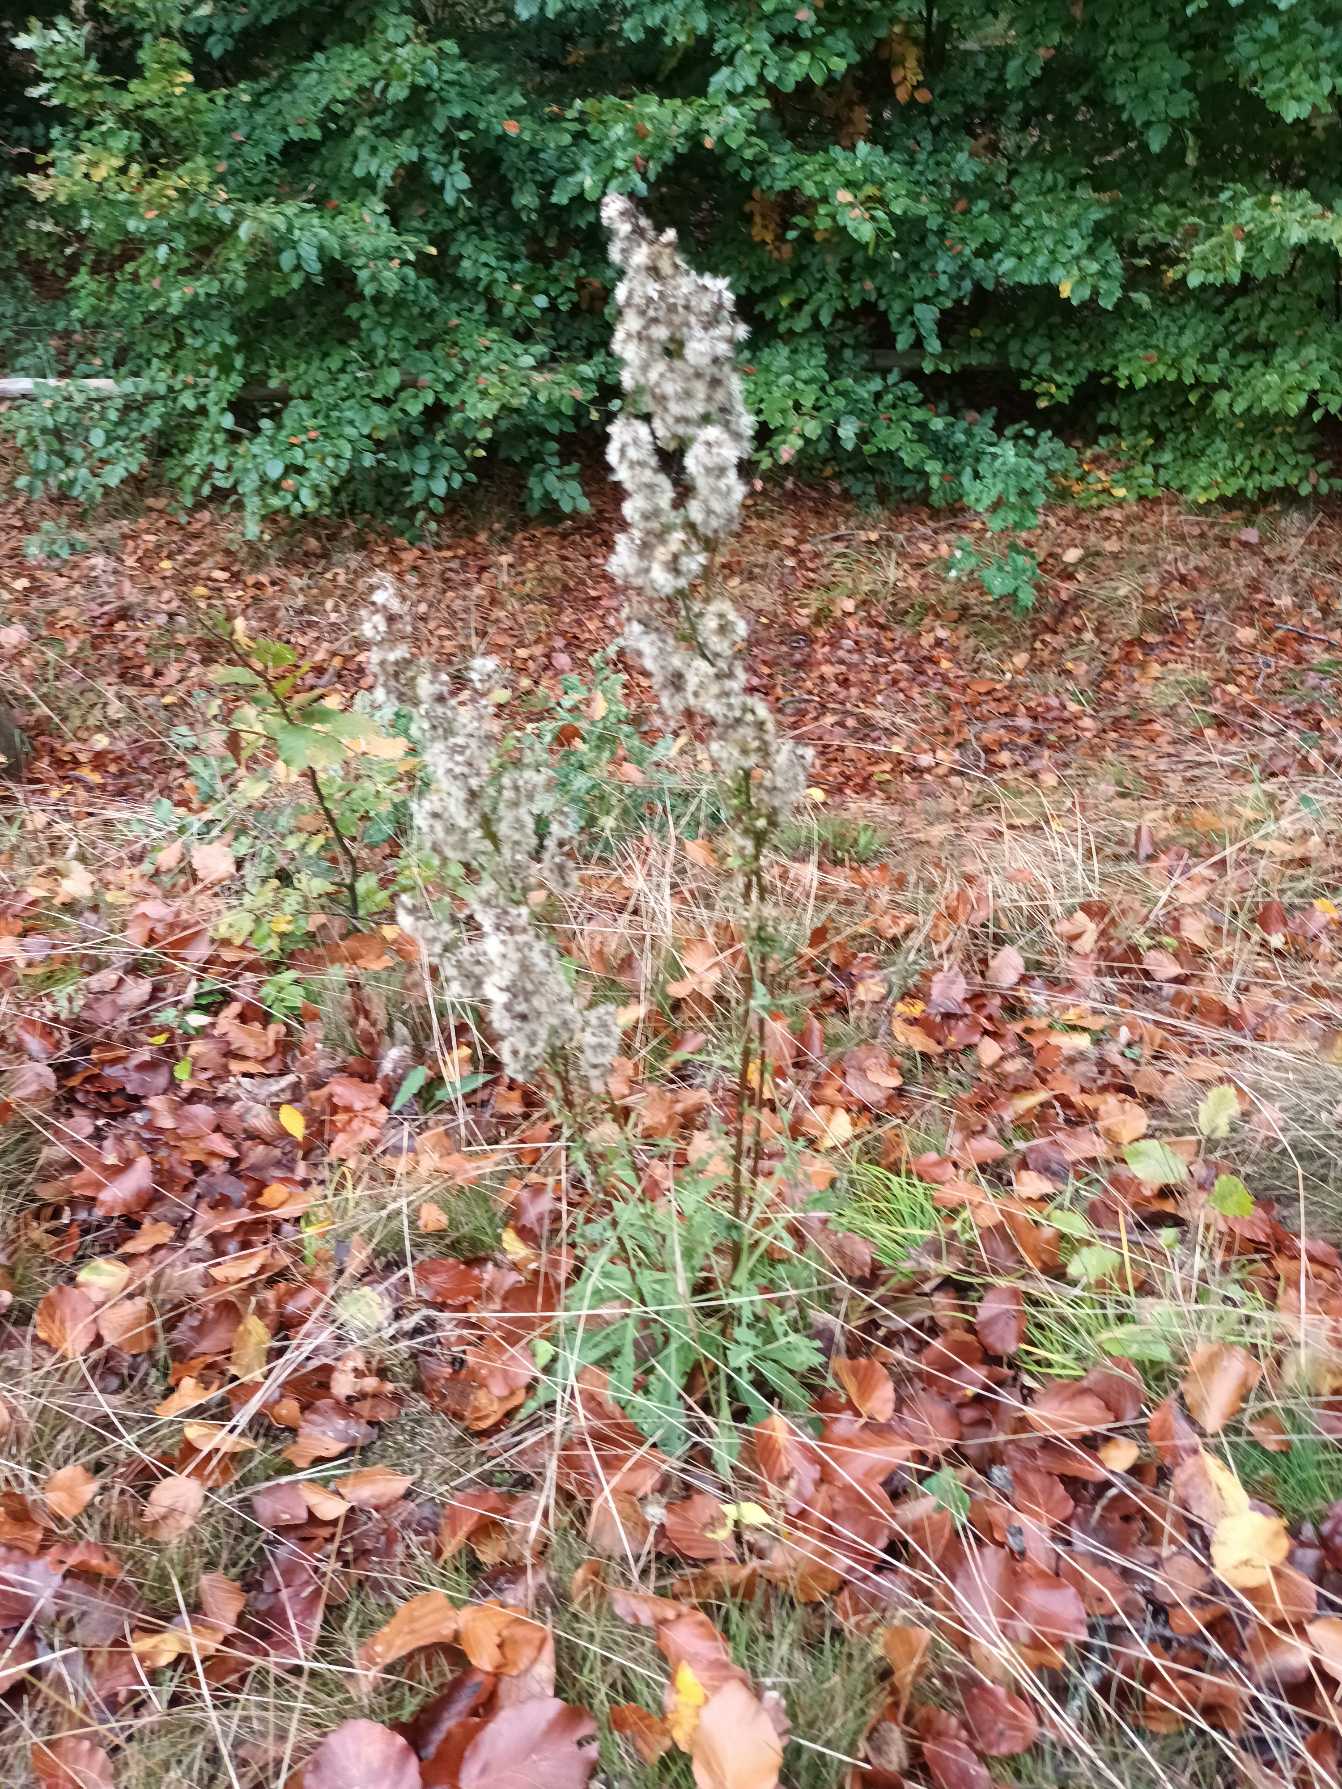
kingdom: Plantae
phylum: Tracheophyta
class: Magnoliopsida
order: Asterales
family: Asteraceae
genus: Solidago
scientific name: Solidago virgaurea
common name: Almindelig gyldenris
